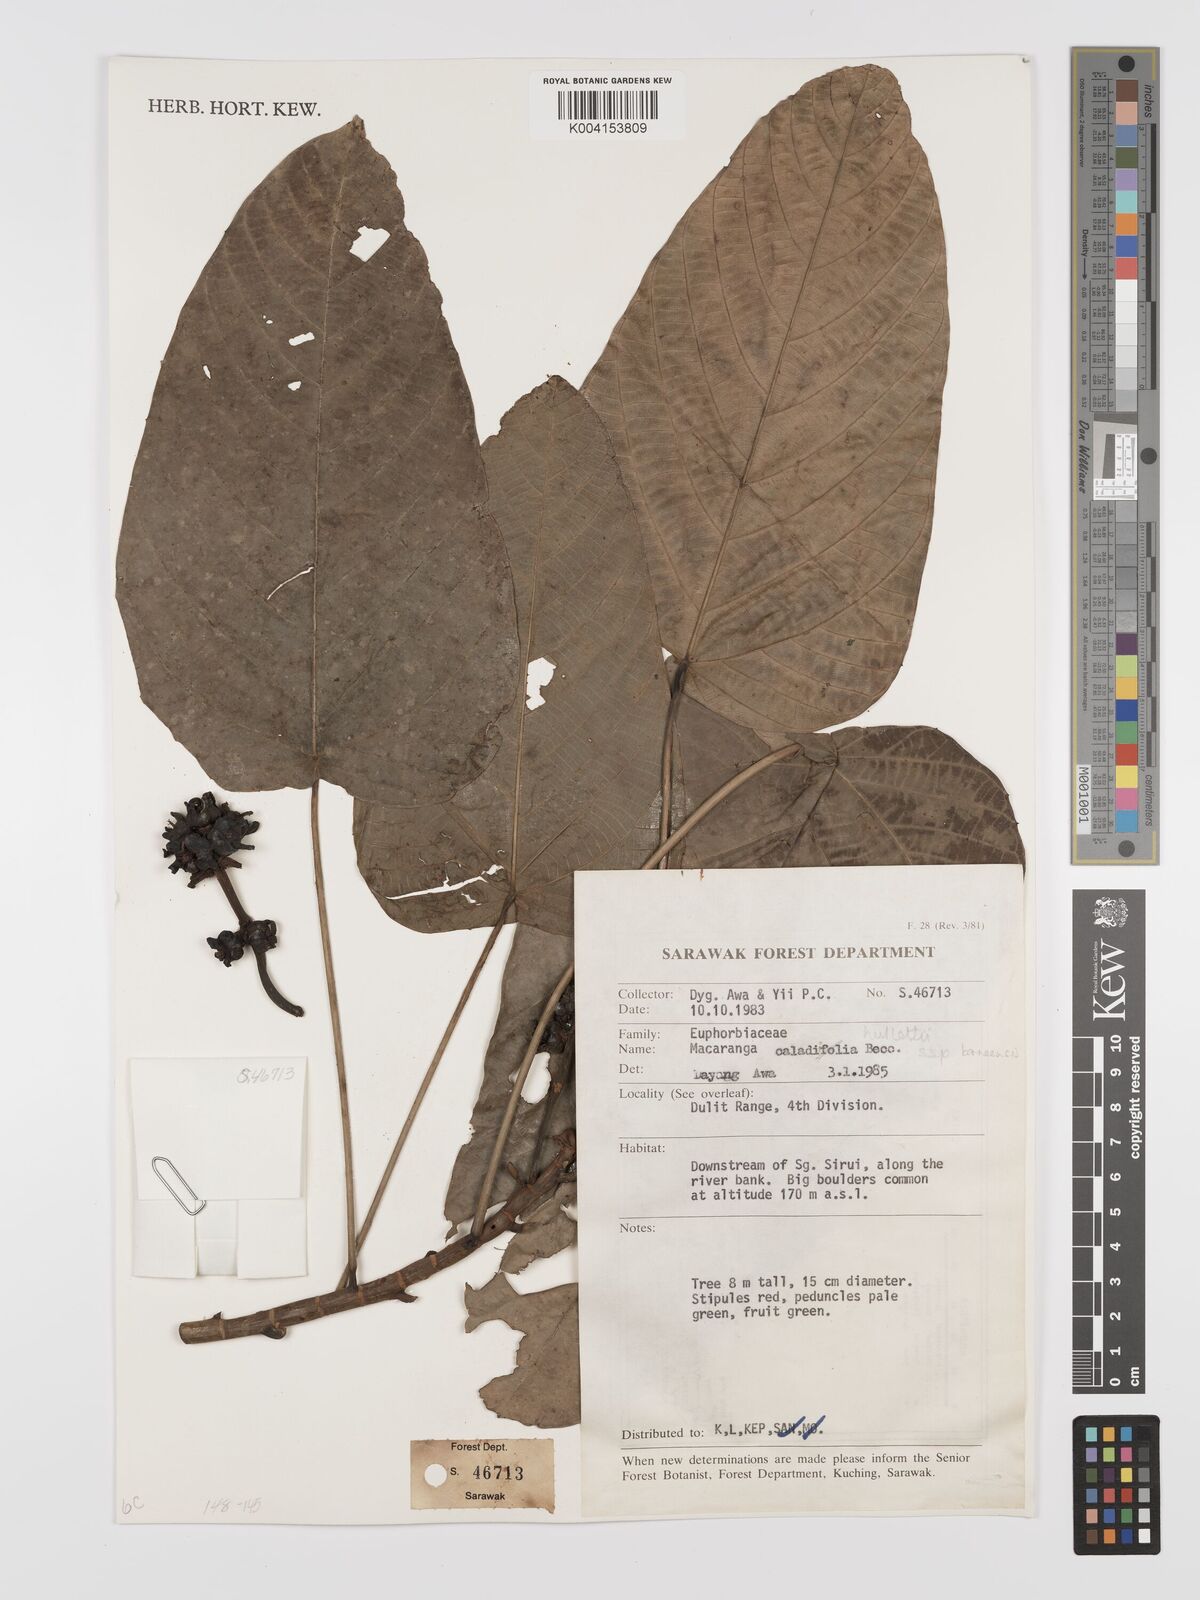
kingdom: Plantae
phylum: Tracheophyta
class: Magnoliopsida
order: Malpighiales
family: Euphorbiaceae
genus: Macaranga
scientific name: Macaranga
